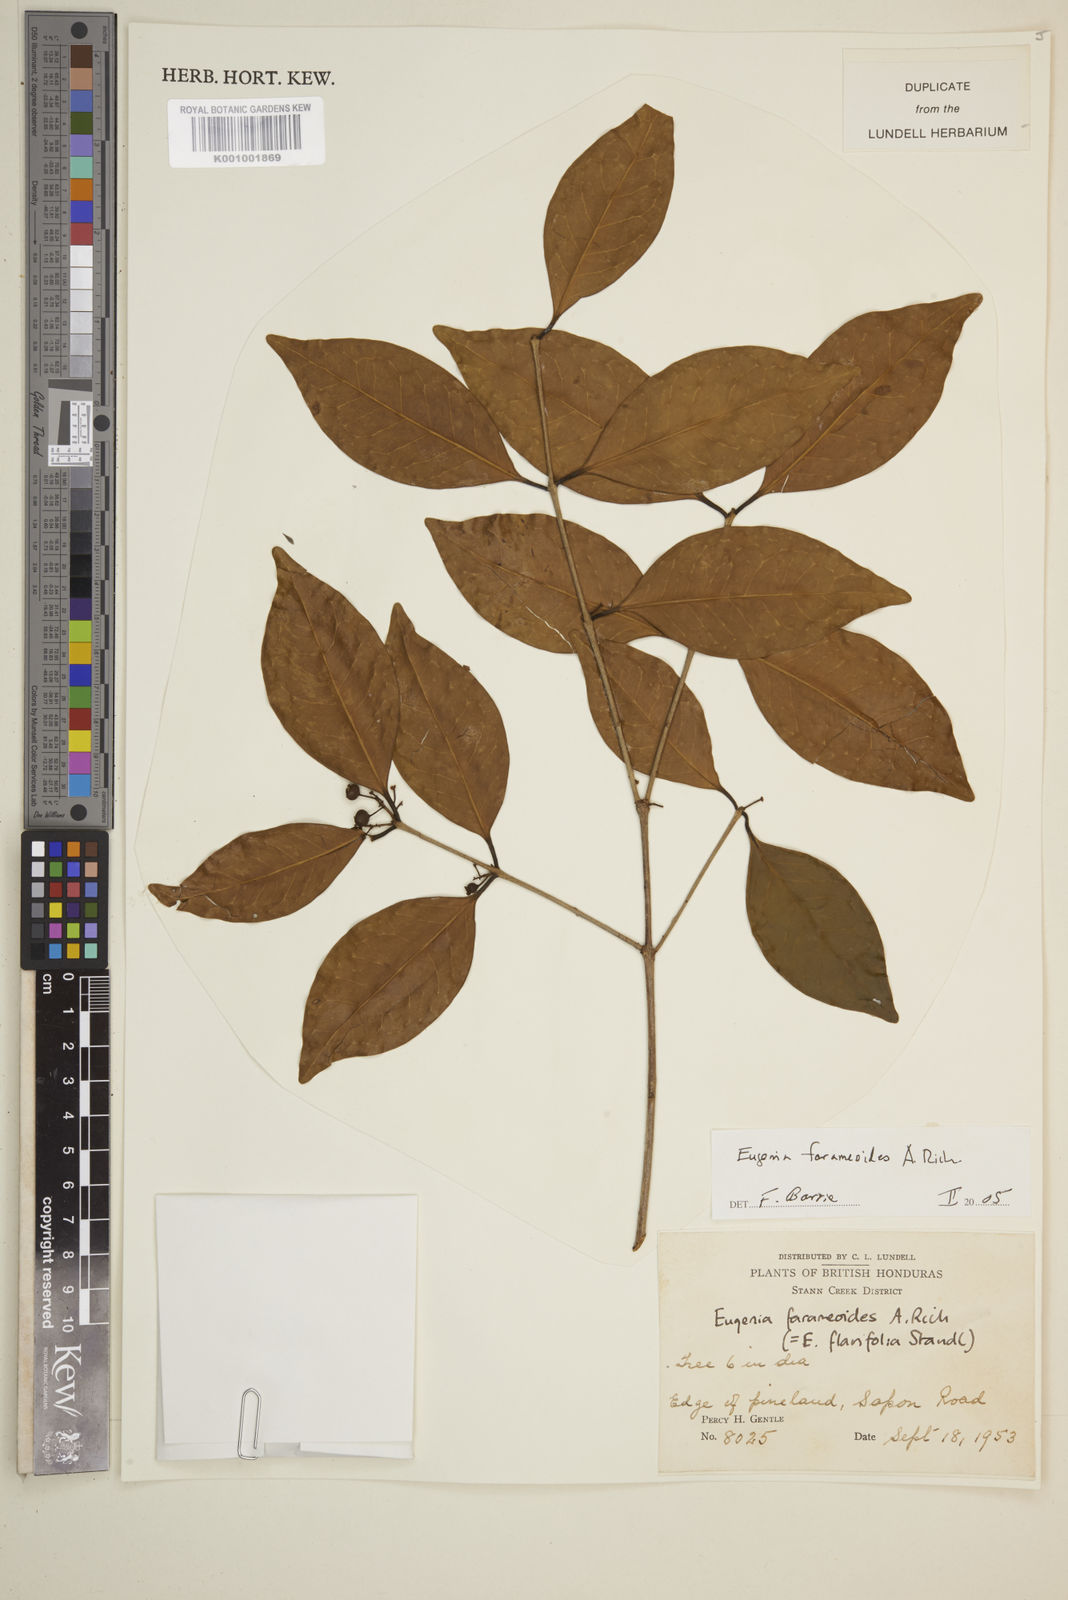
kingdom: Plantae
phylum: Tracheophyta
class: Magnoliopsida
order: Myrtales
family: Myrtaceae
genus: Eugenia
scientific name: Eugenia farameoides
